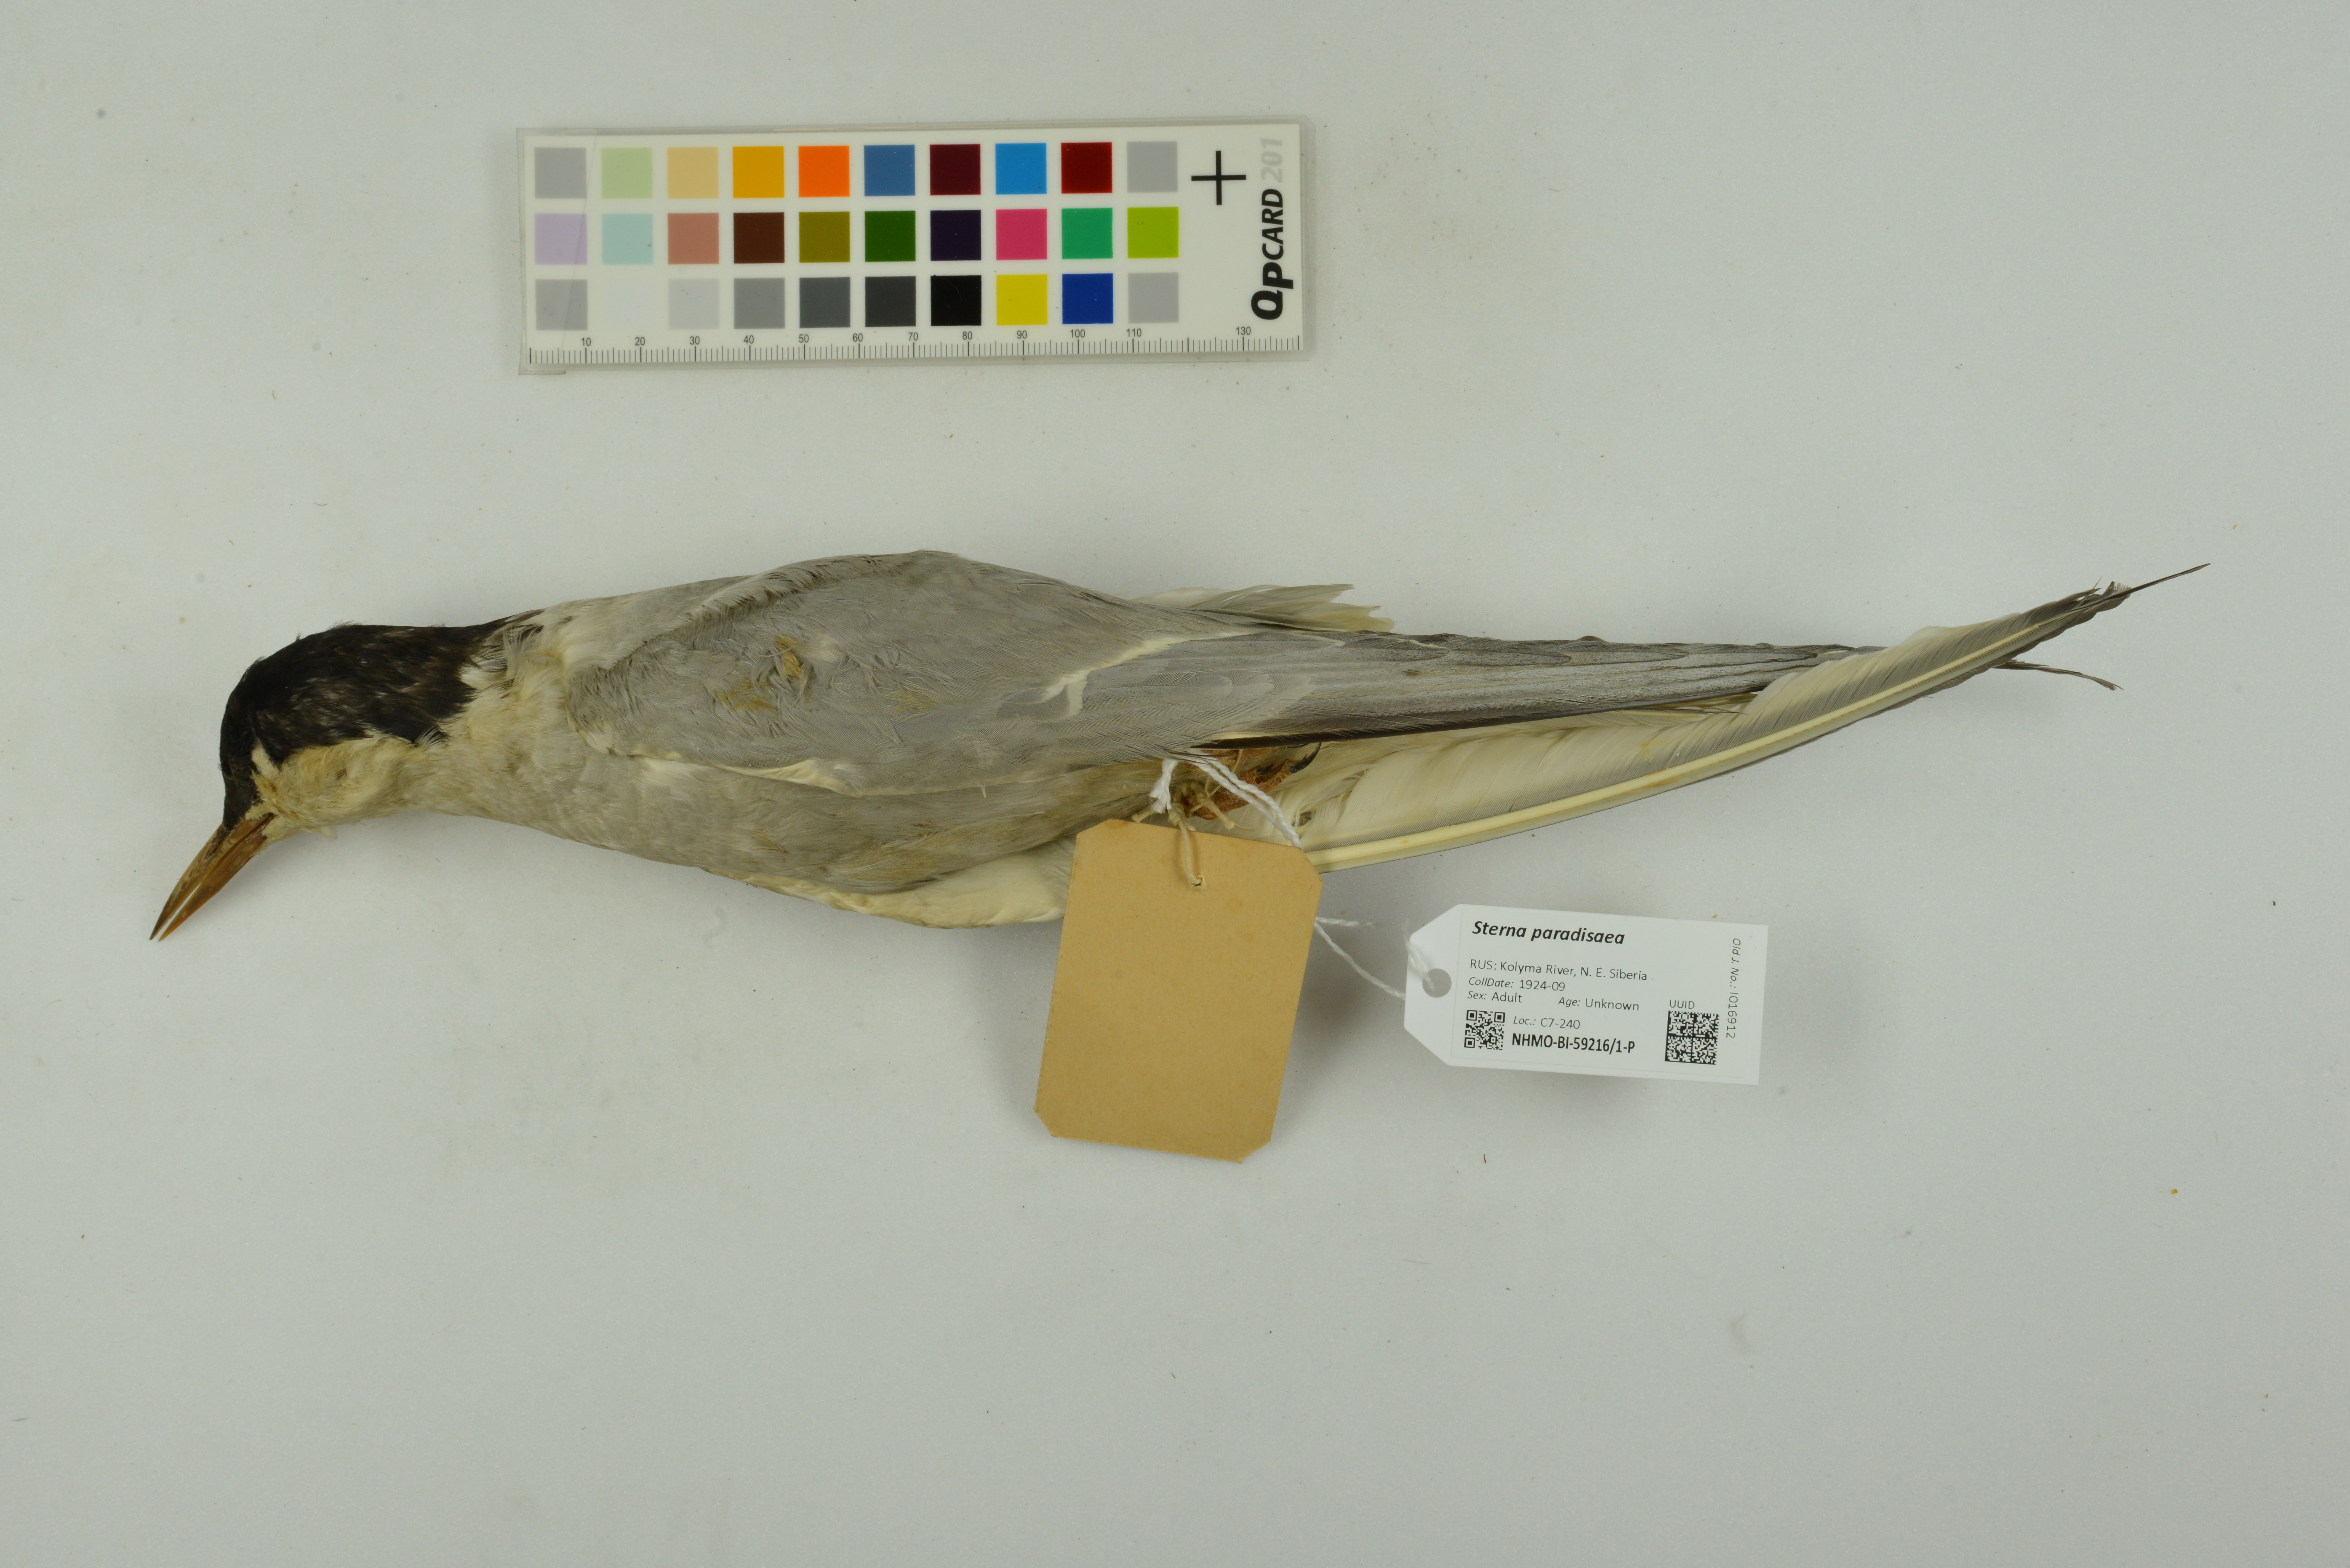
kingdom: Animalia
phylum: Chordata
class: Aves
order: Charadriiformes
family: Laridae
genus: Sterna
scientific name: Sterna paradisaea
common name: Arctic tern
